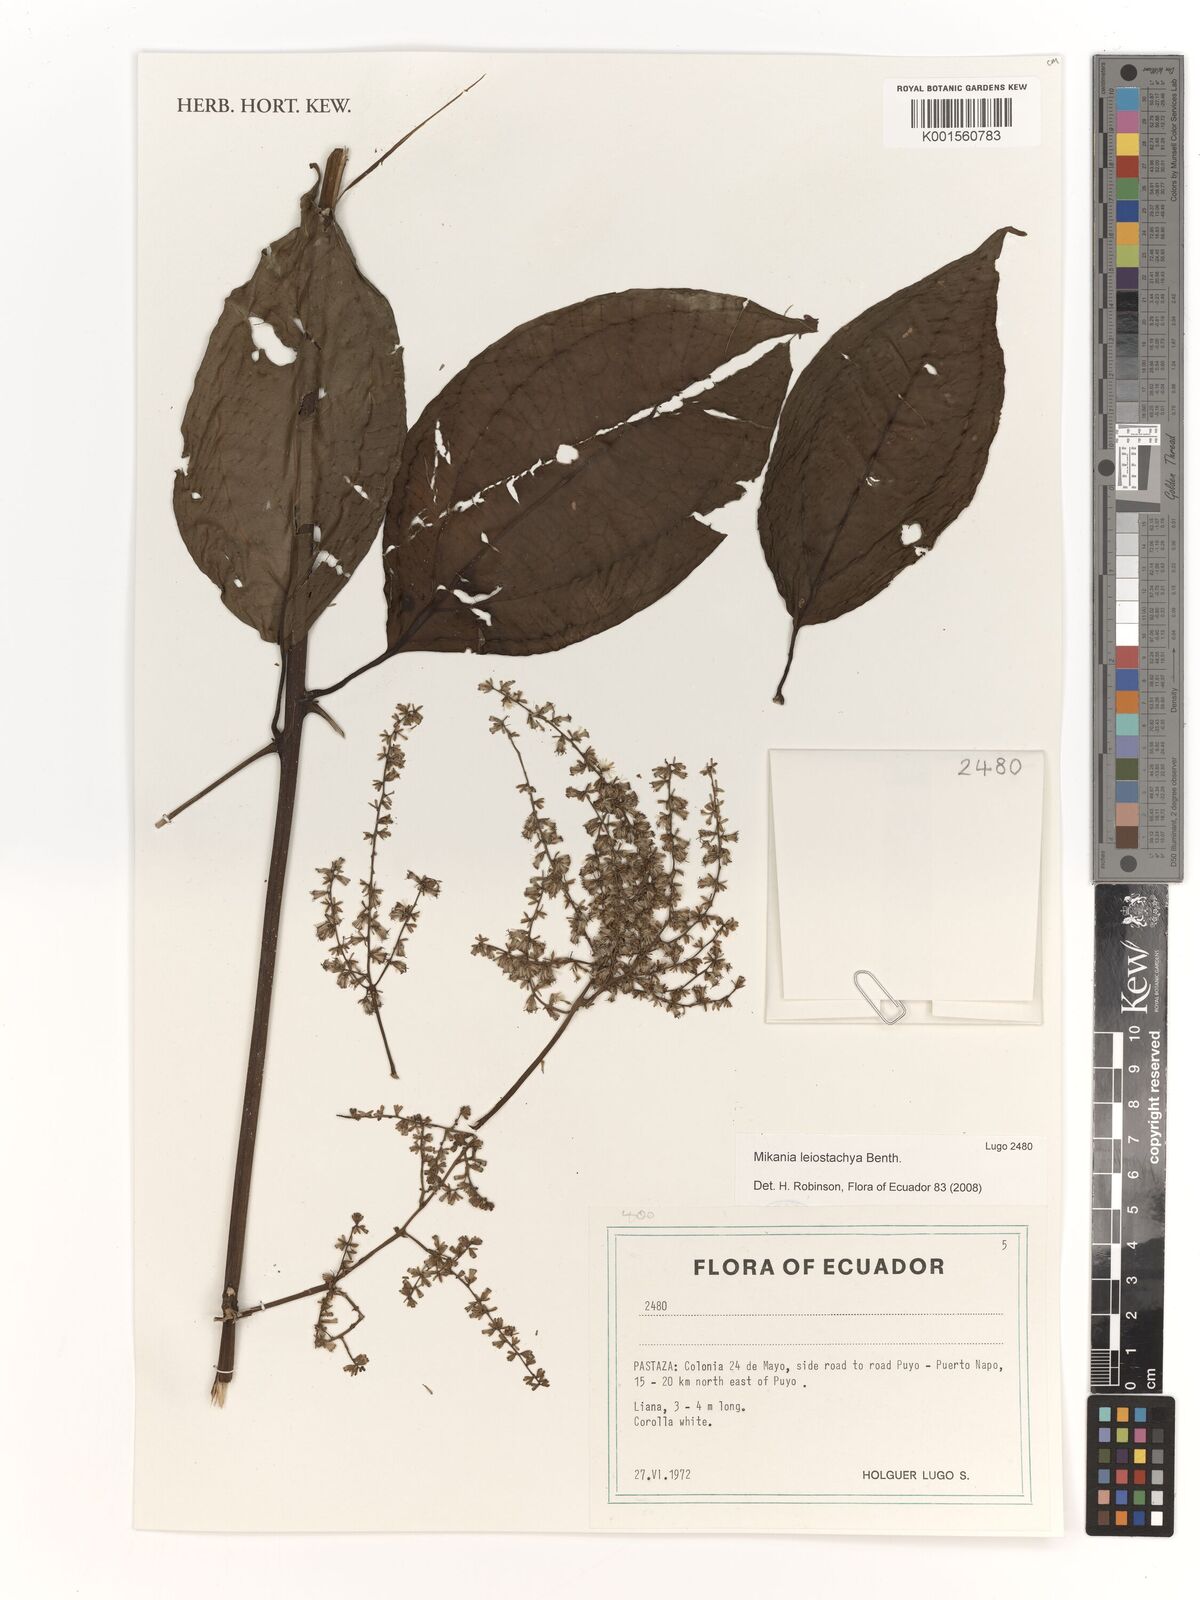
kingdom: Plantae
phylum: Tracheophyta
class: Magnoliopsida
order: Asterales
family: Asteraceae
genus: Mikania
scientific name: Mikania leiostachya
